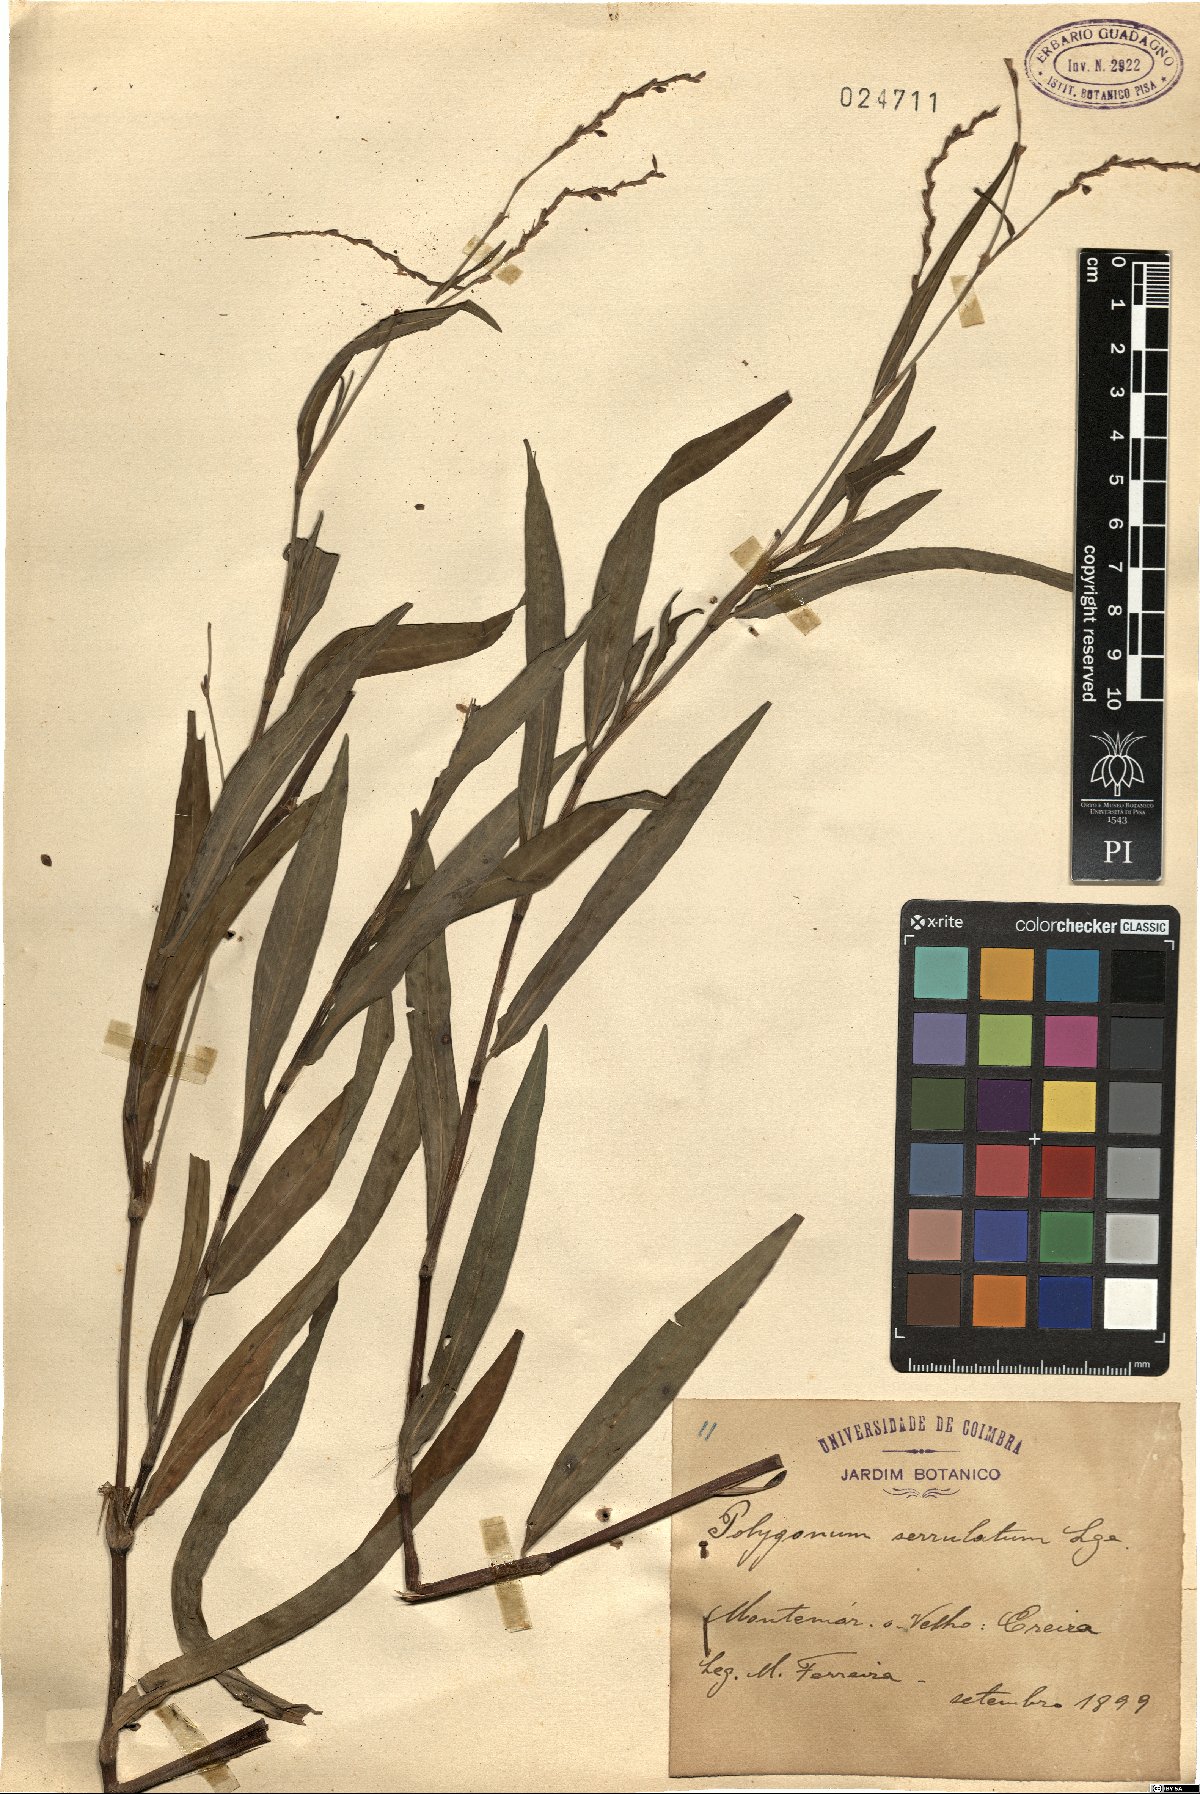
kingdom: Plantae
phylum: Tracheophyta
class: Magnoliopsida
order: Caryophyllales
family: Polygonaceae
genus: Persicaria
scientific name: Persicaria salicifolia
